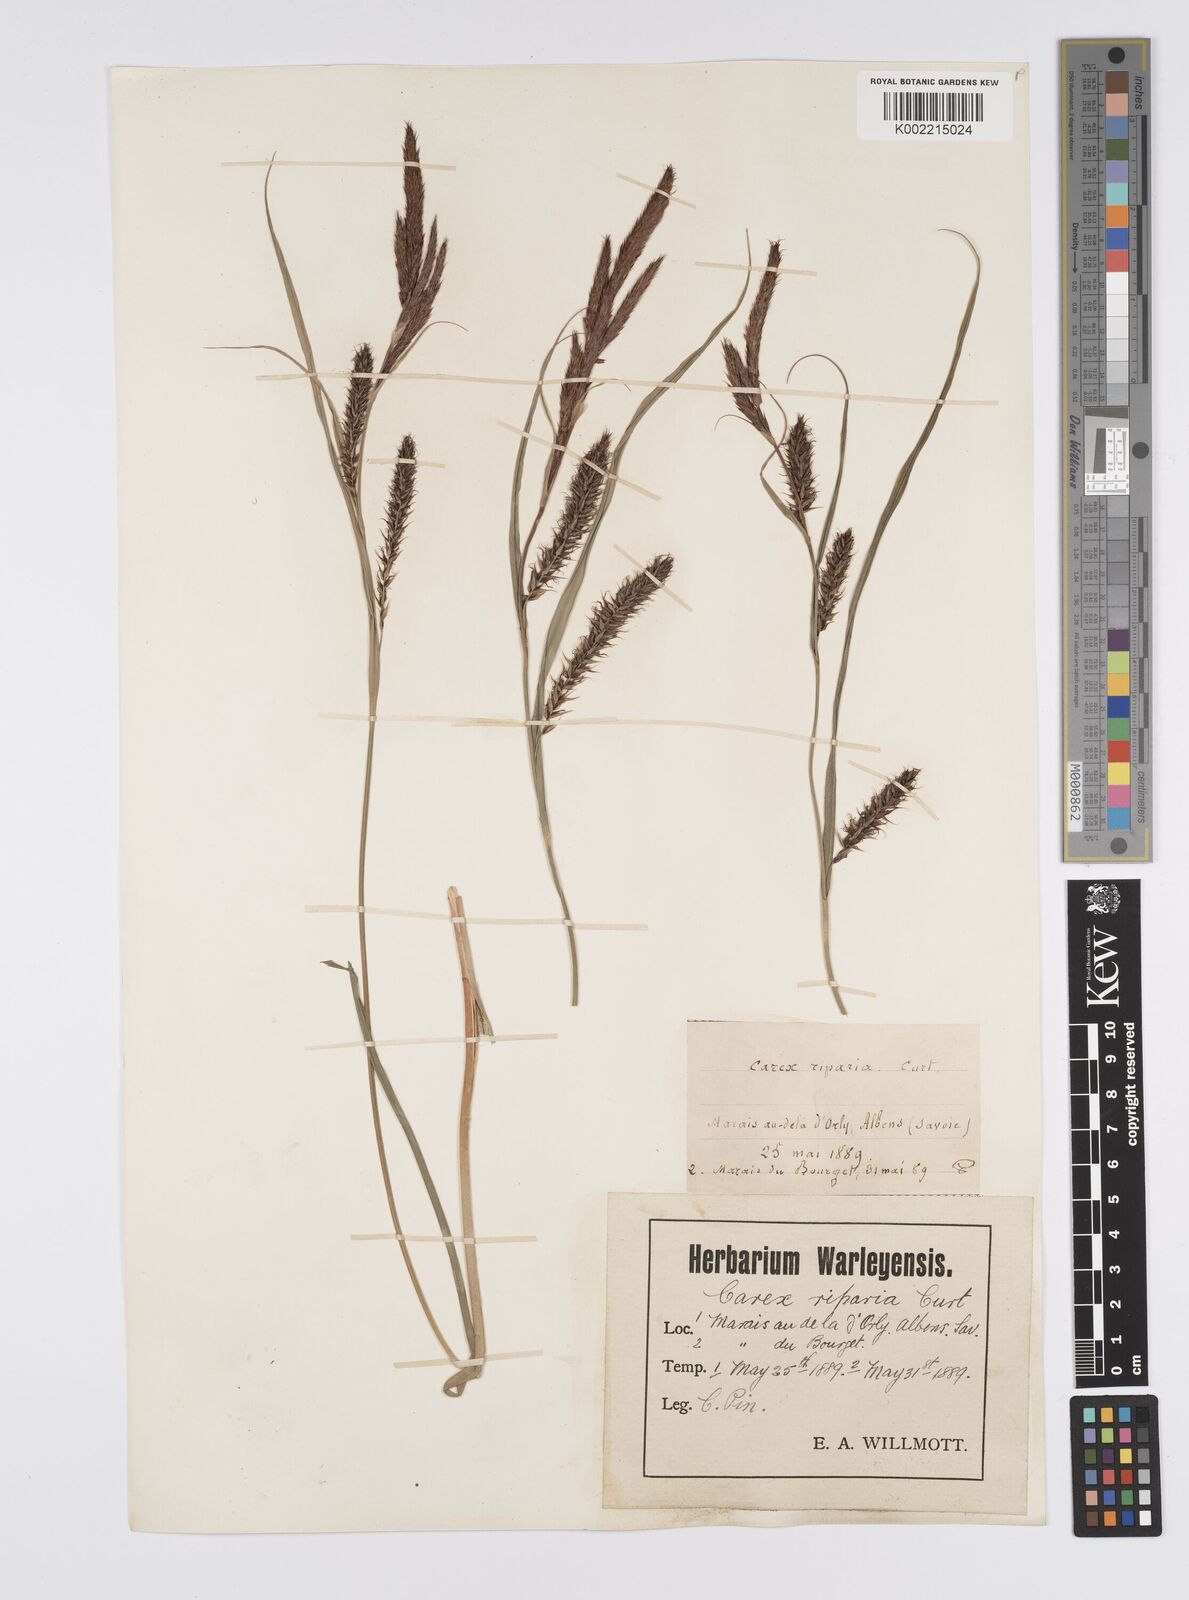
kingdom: Plantae
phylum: Tracheophyta
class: Liliopsida
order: Poales
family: Cyperaceae
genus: Carex
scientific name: Carex riparia
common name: Greater pond-sedge
